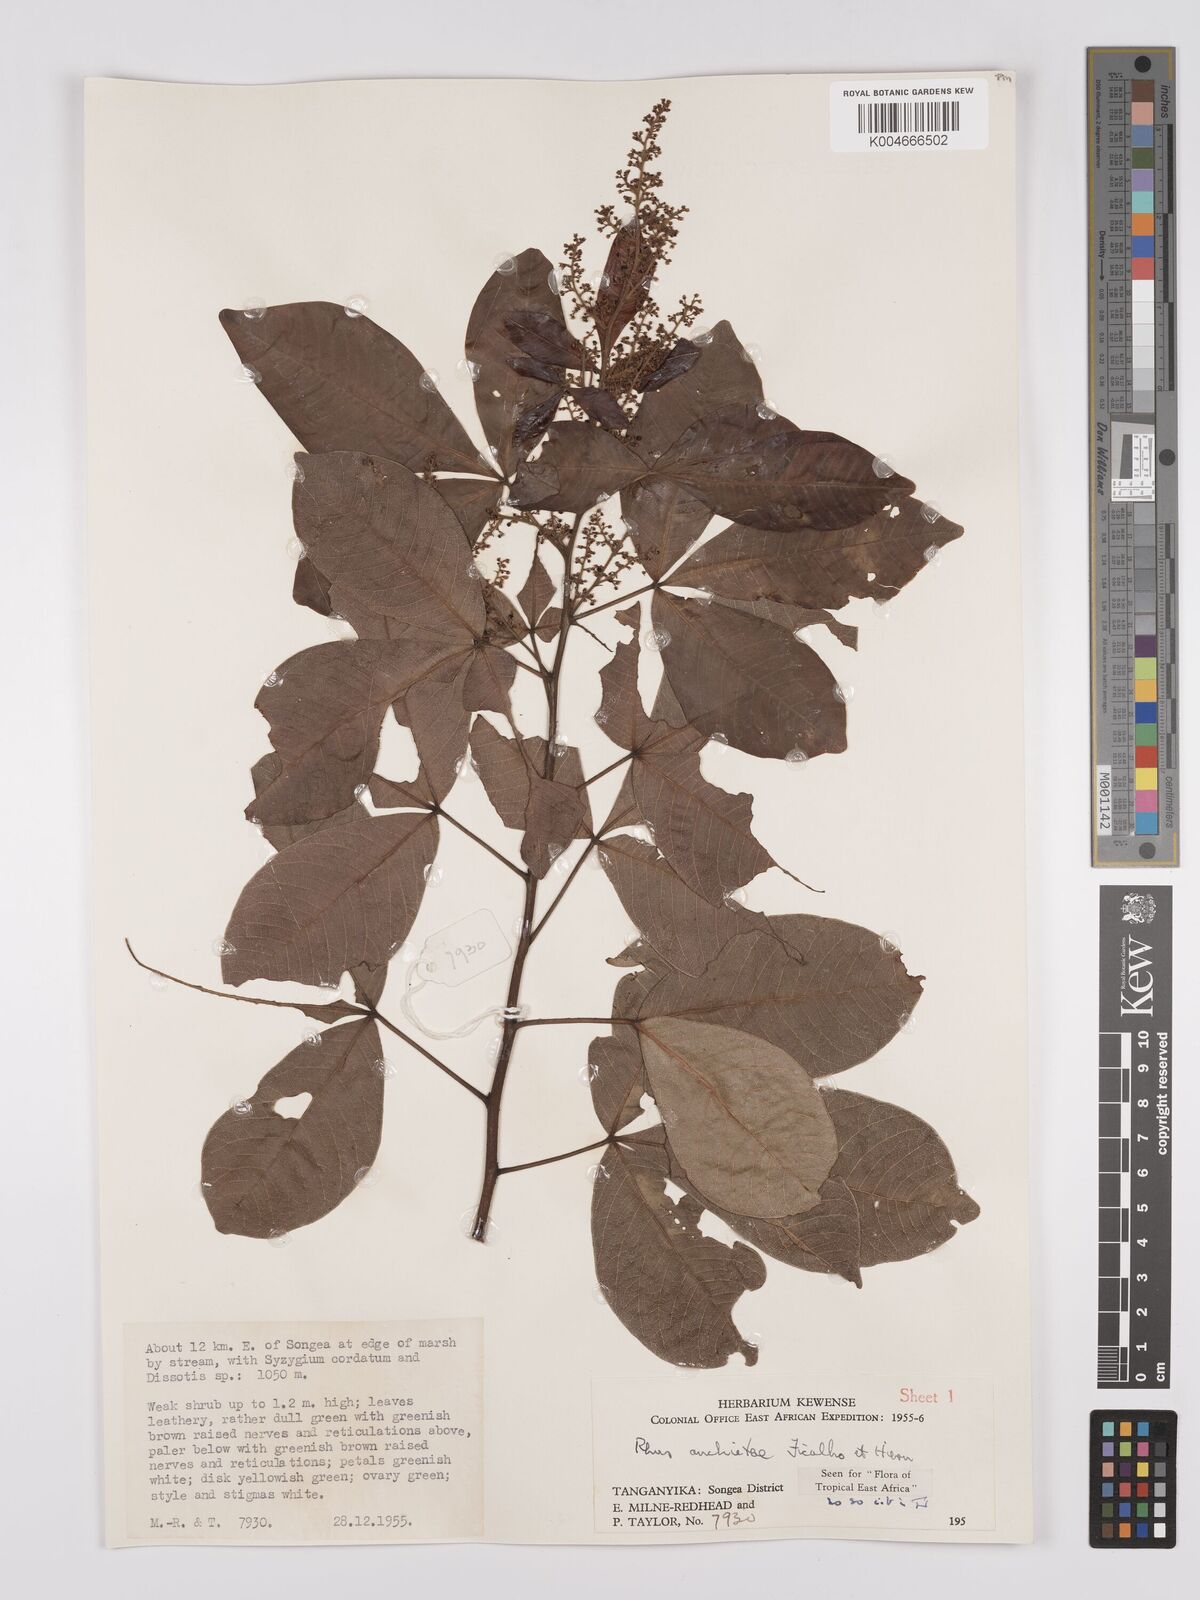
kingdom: Plantae
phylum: Tracheophyta
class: Magnoliopsida
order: Sapindales
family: Anacardiaceae
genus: Searsia
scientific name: Searsia anchietae
